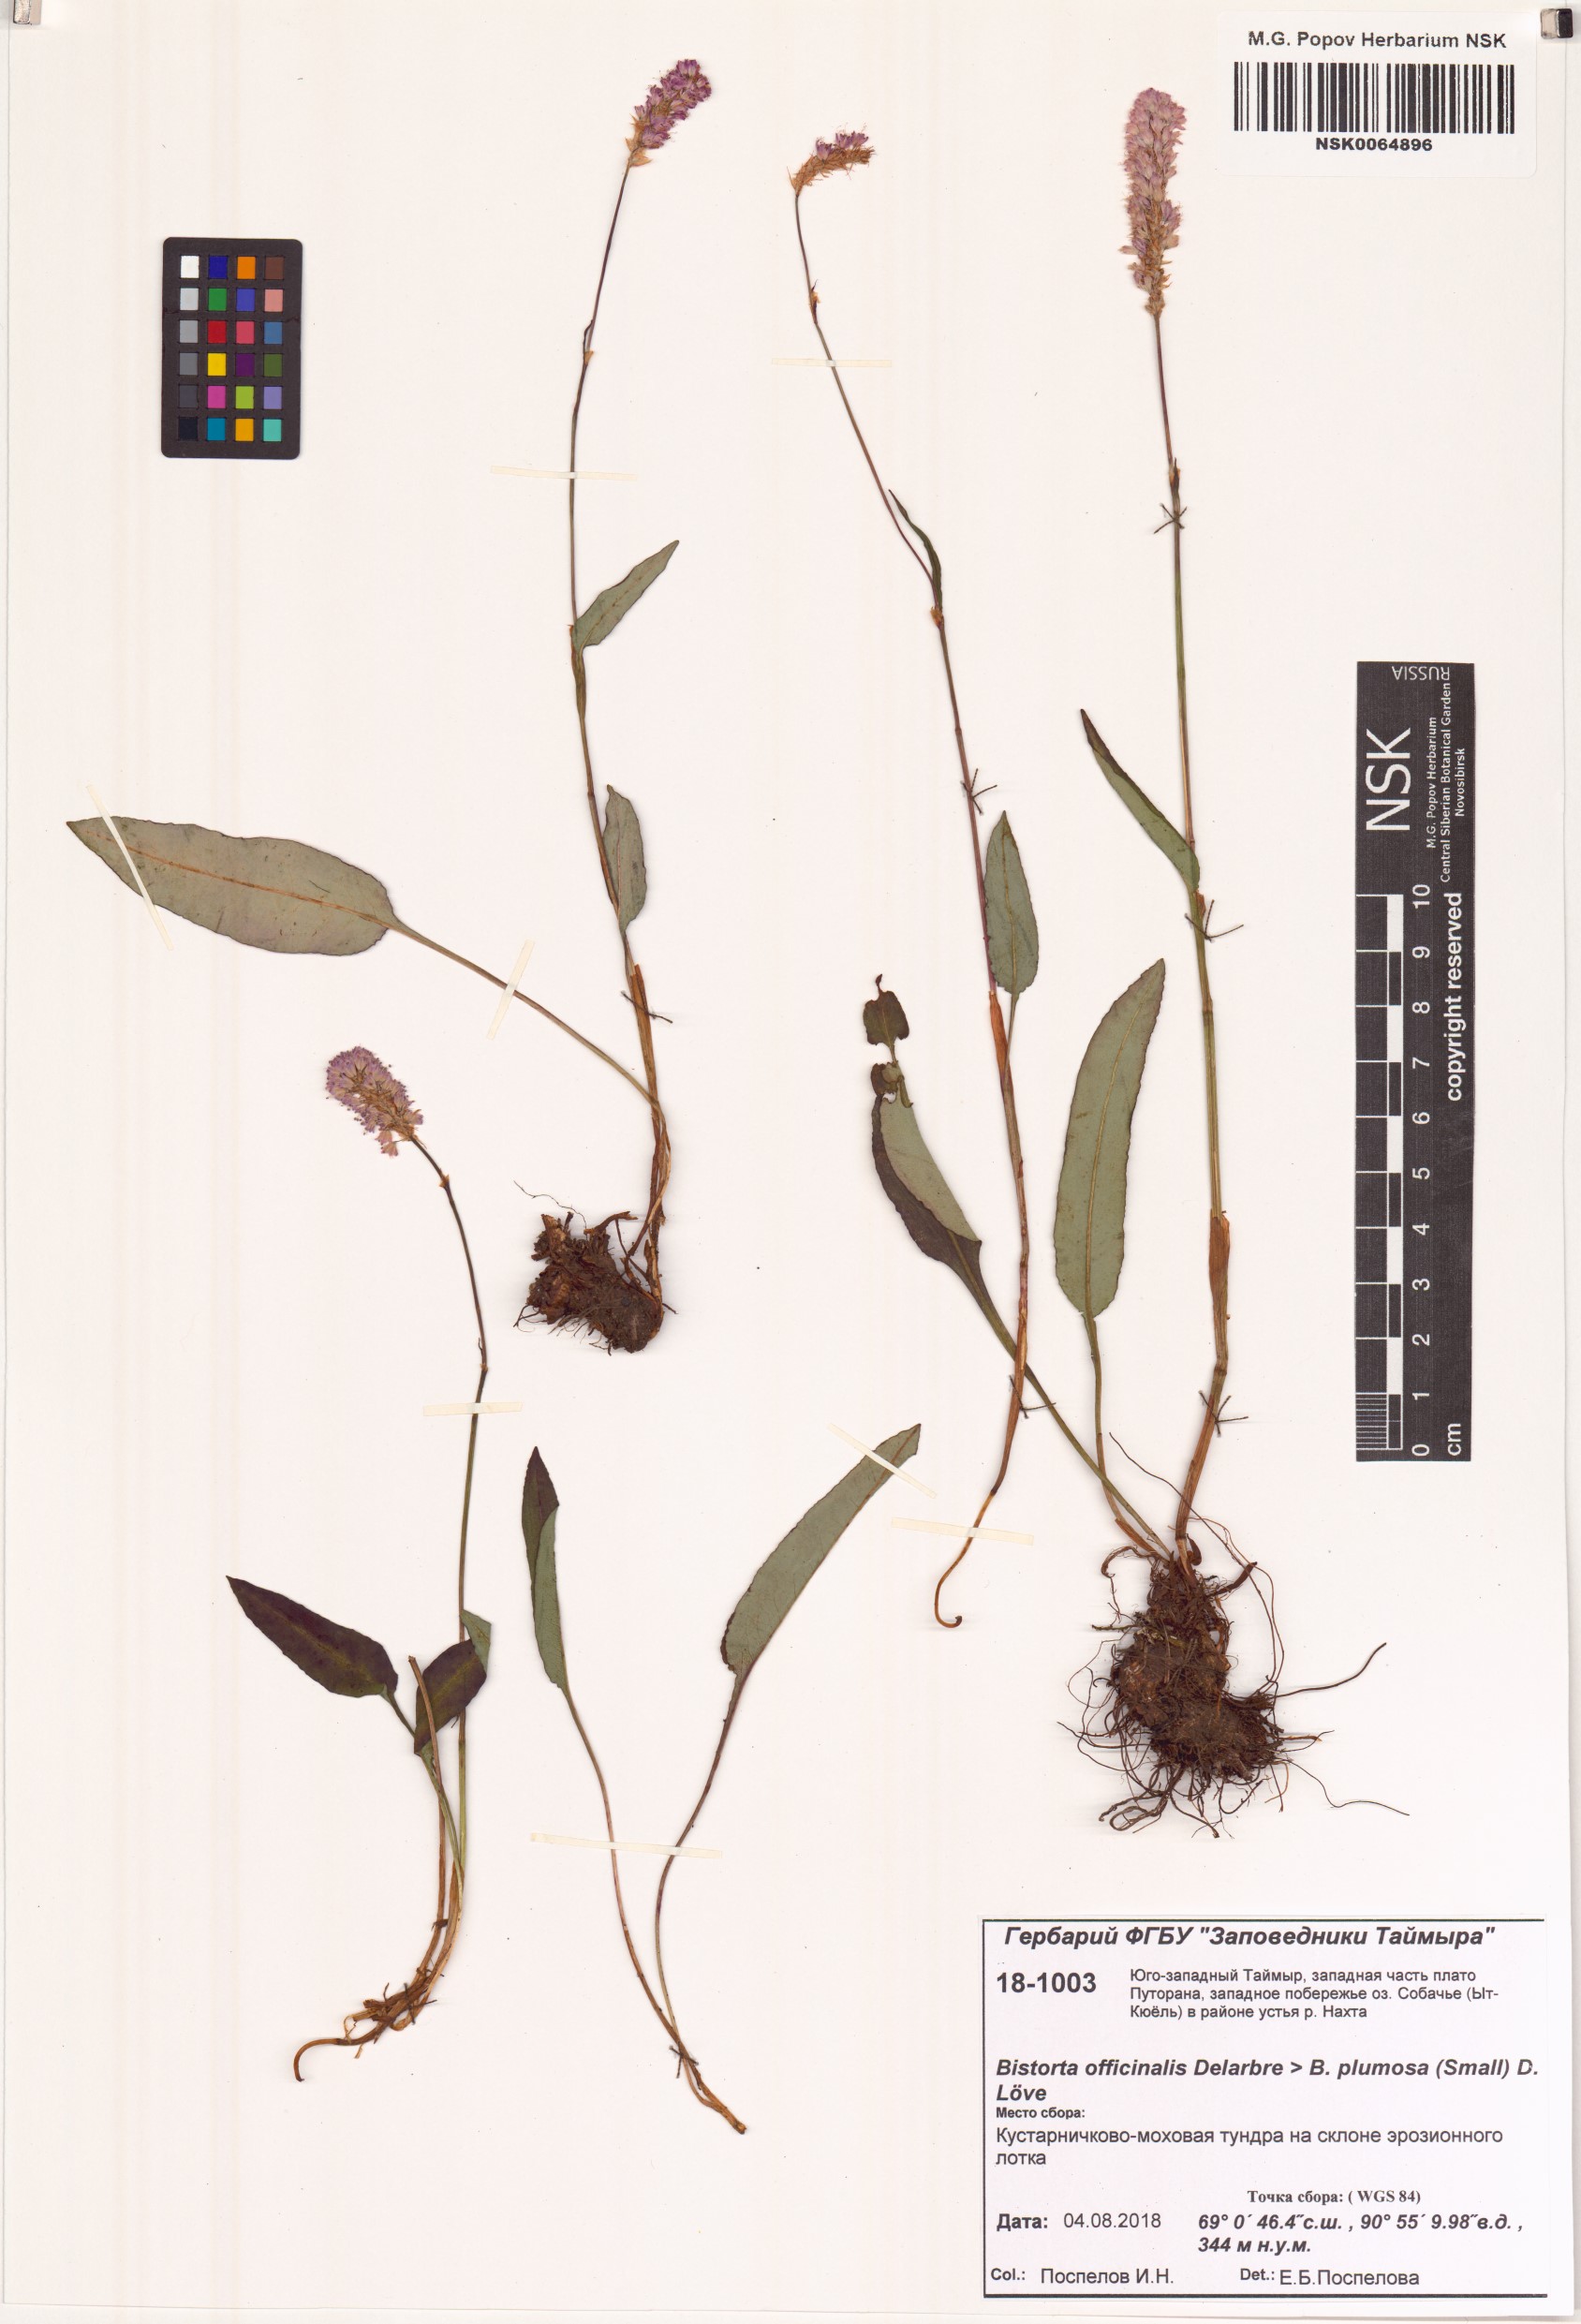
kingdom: Plantae
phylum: Tracheophyta
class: Magnoliopsida
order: Caryophyllales
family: Polygonaceae
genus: Bistorta
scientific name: Bistorta officinalis
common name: Common bistort
